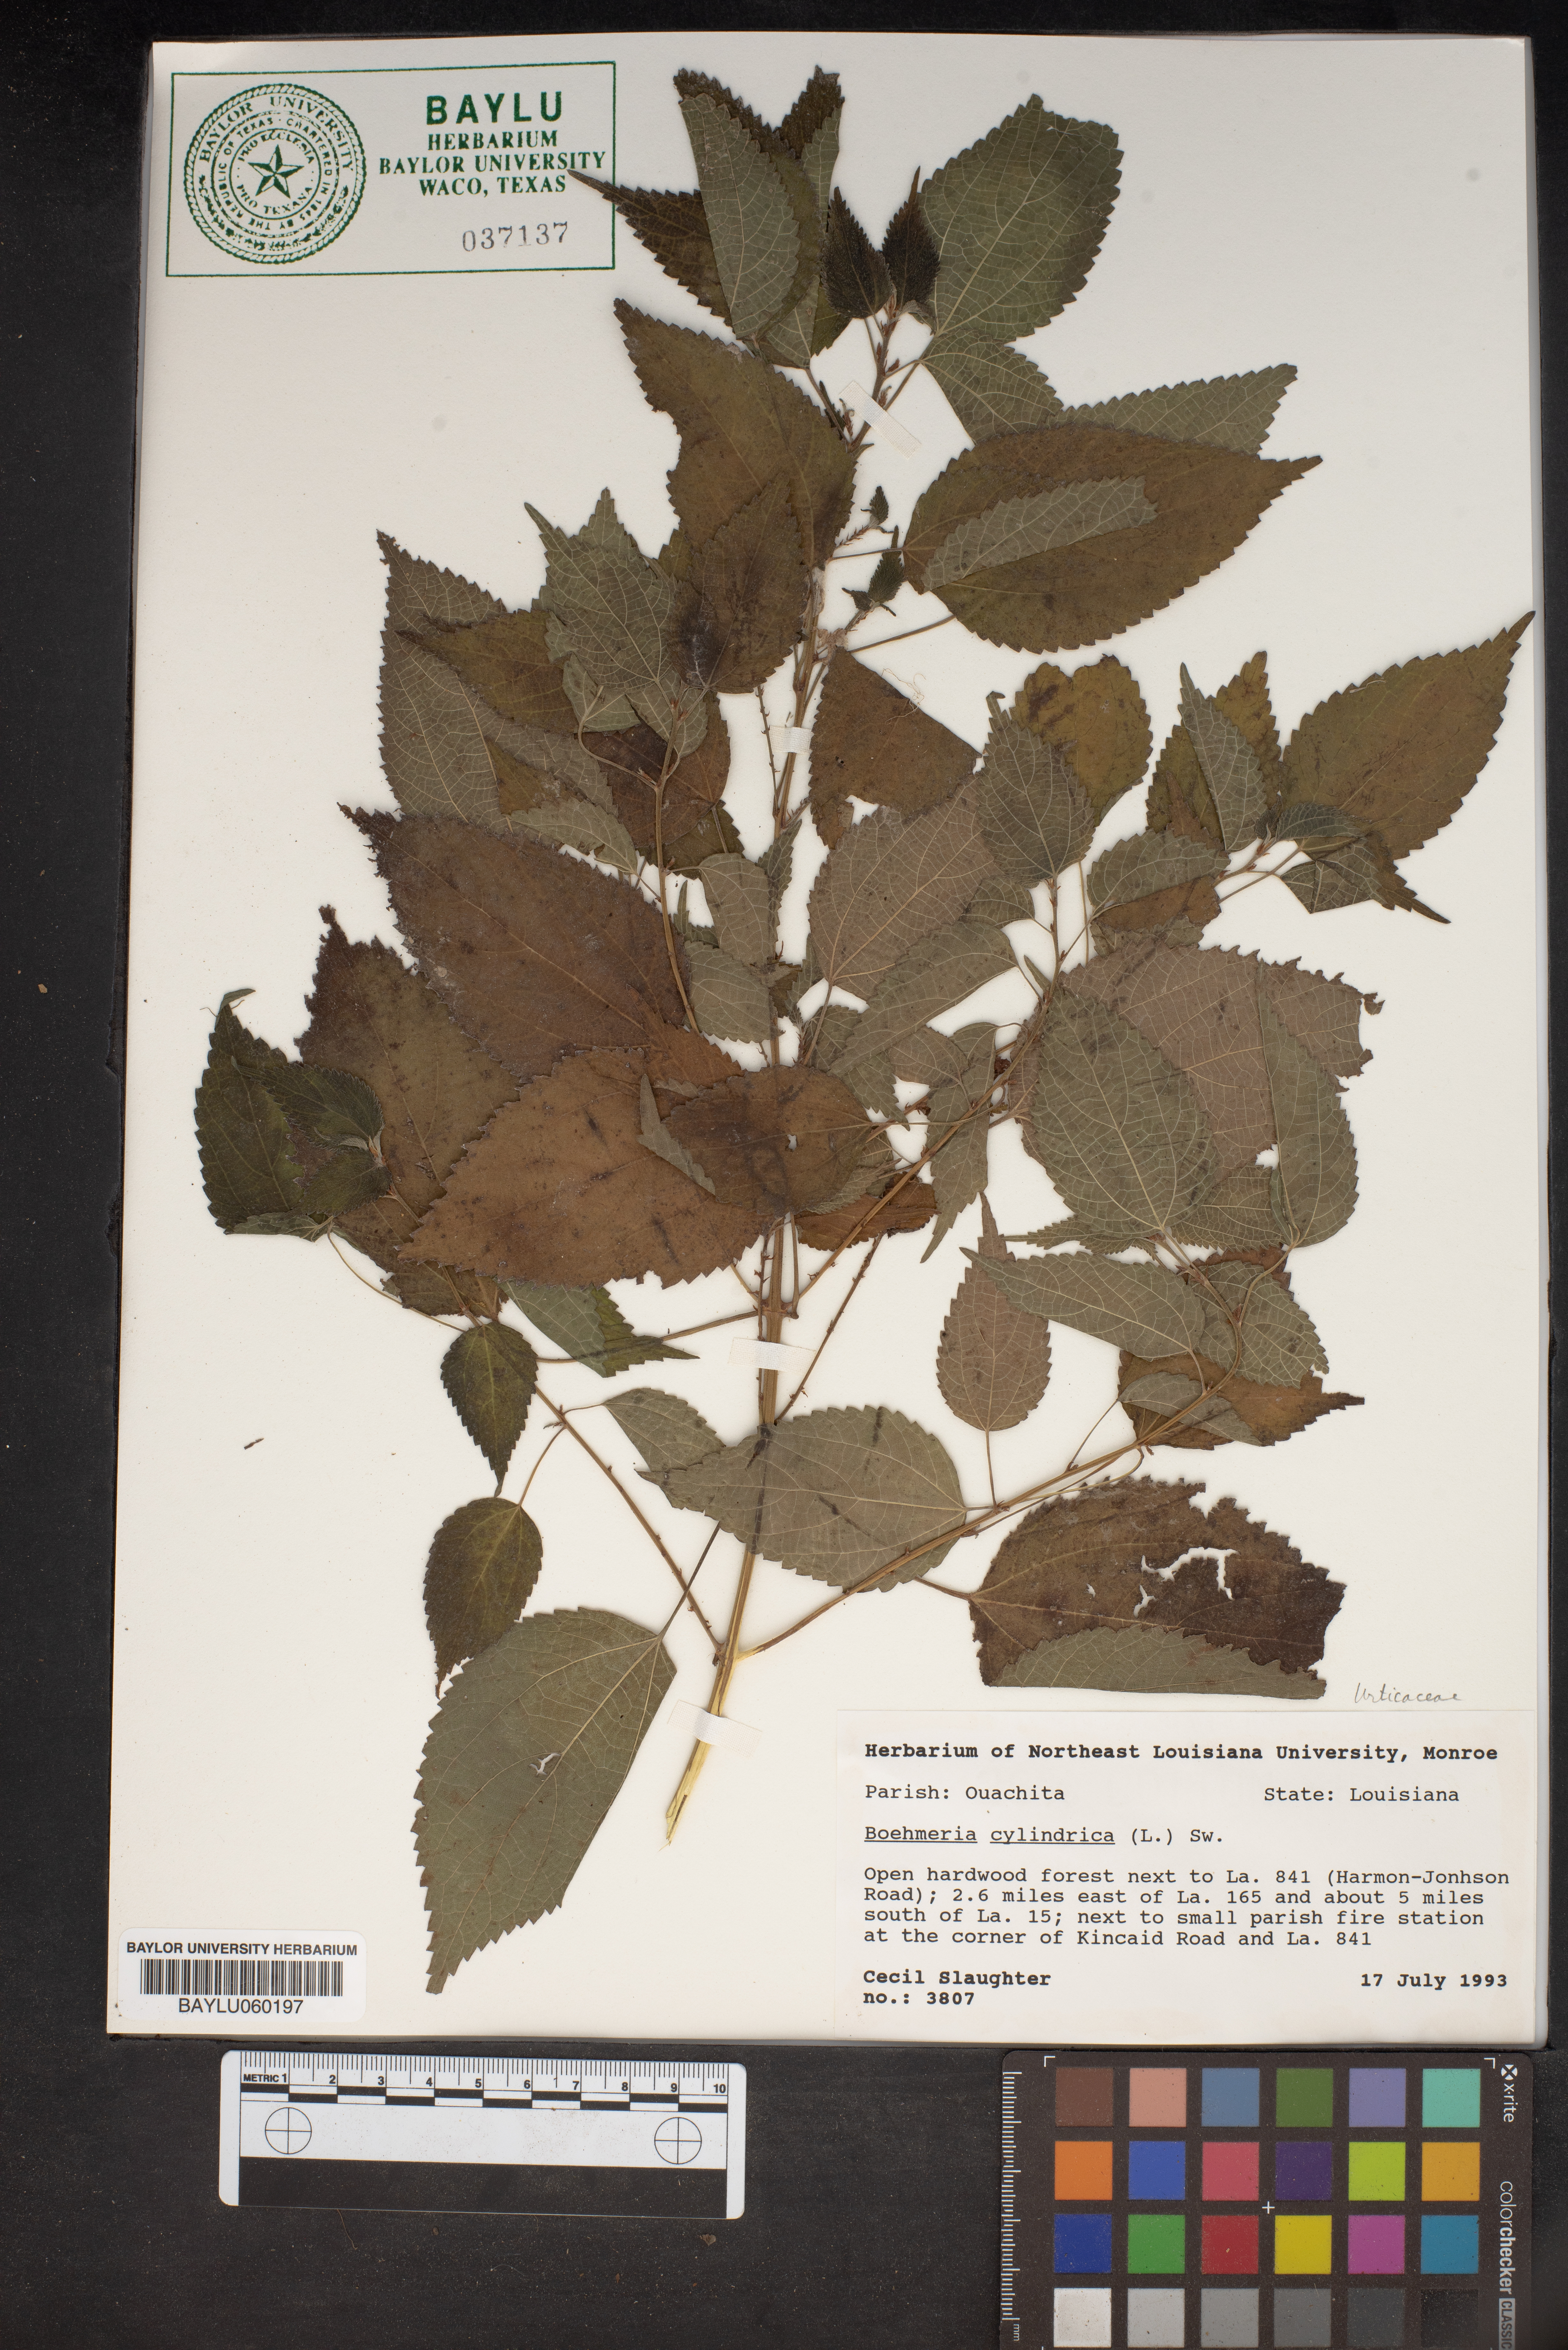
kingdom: Plantae
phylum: Tracheophyta
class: Magnoliopsida
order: Rosales
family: Urticaceae
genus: Boehmeria
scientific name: Boehmeria cylindrica
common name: Bog-hemp
